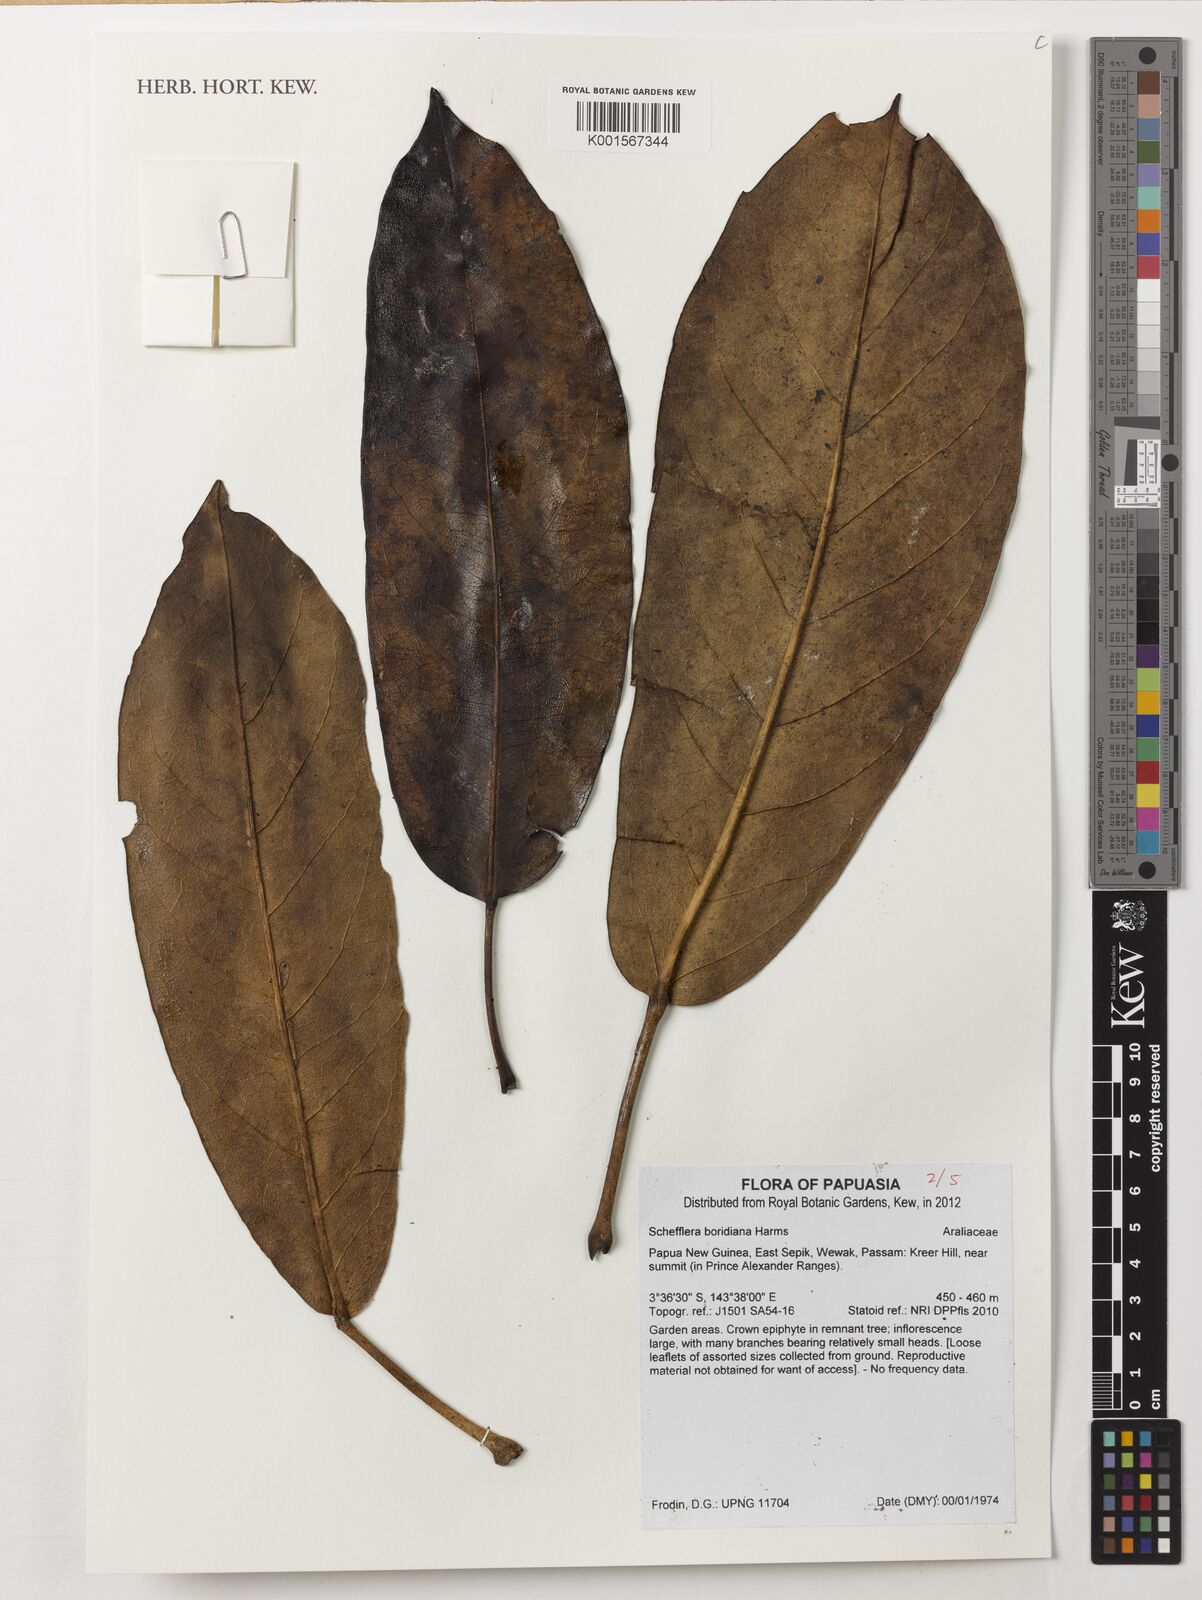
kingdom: Plantae
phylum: Tracheophyta
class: Magnoliopsida
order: Apiales
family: Araliaceae
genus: Heptapleurum
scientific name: Heptapleurum boridianum
